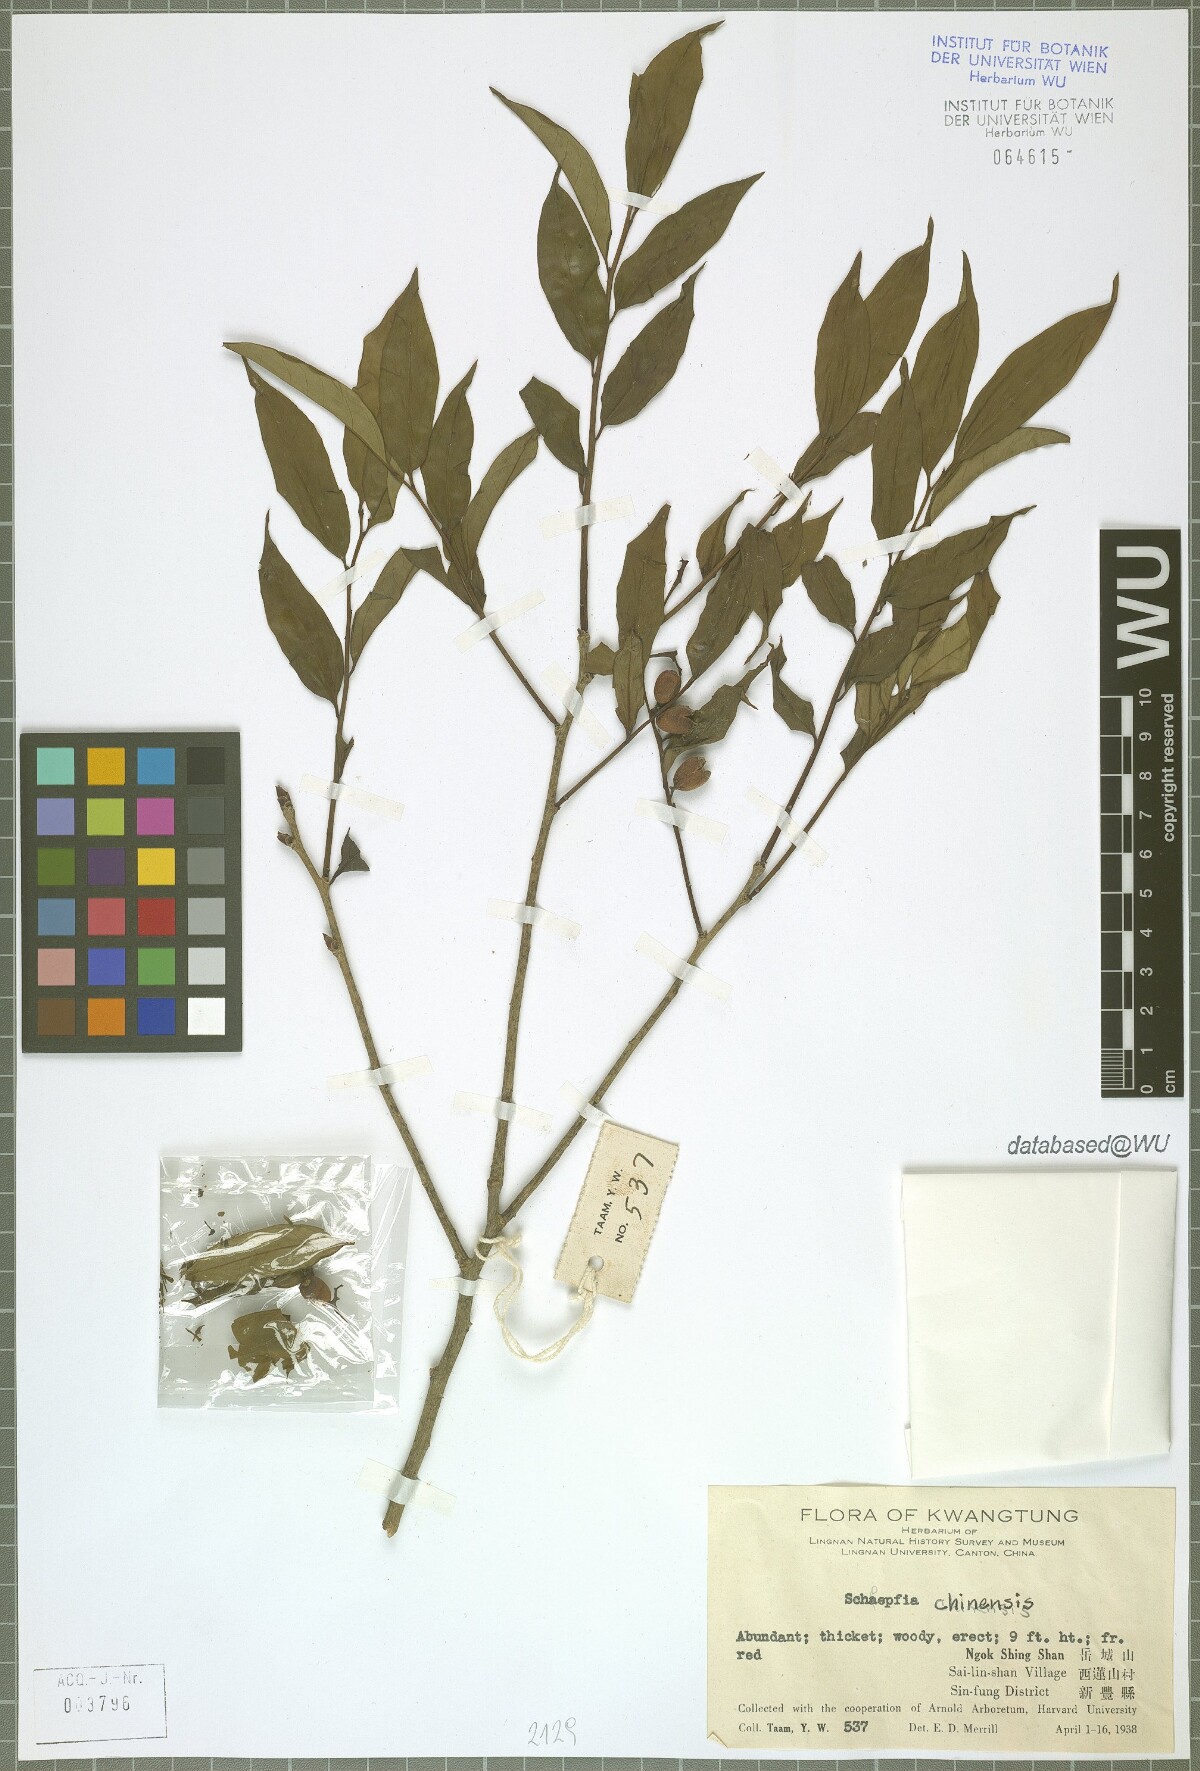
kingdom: Plantae
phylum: Tracheophyta
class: Magnoliopsida
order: Santalales
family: Schoepfiaceae
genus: Schoepfia
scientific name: Schoepfia chinensis
